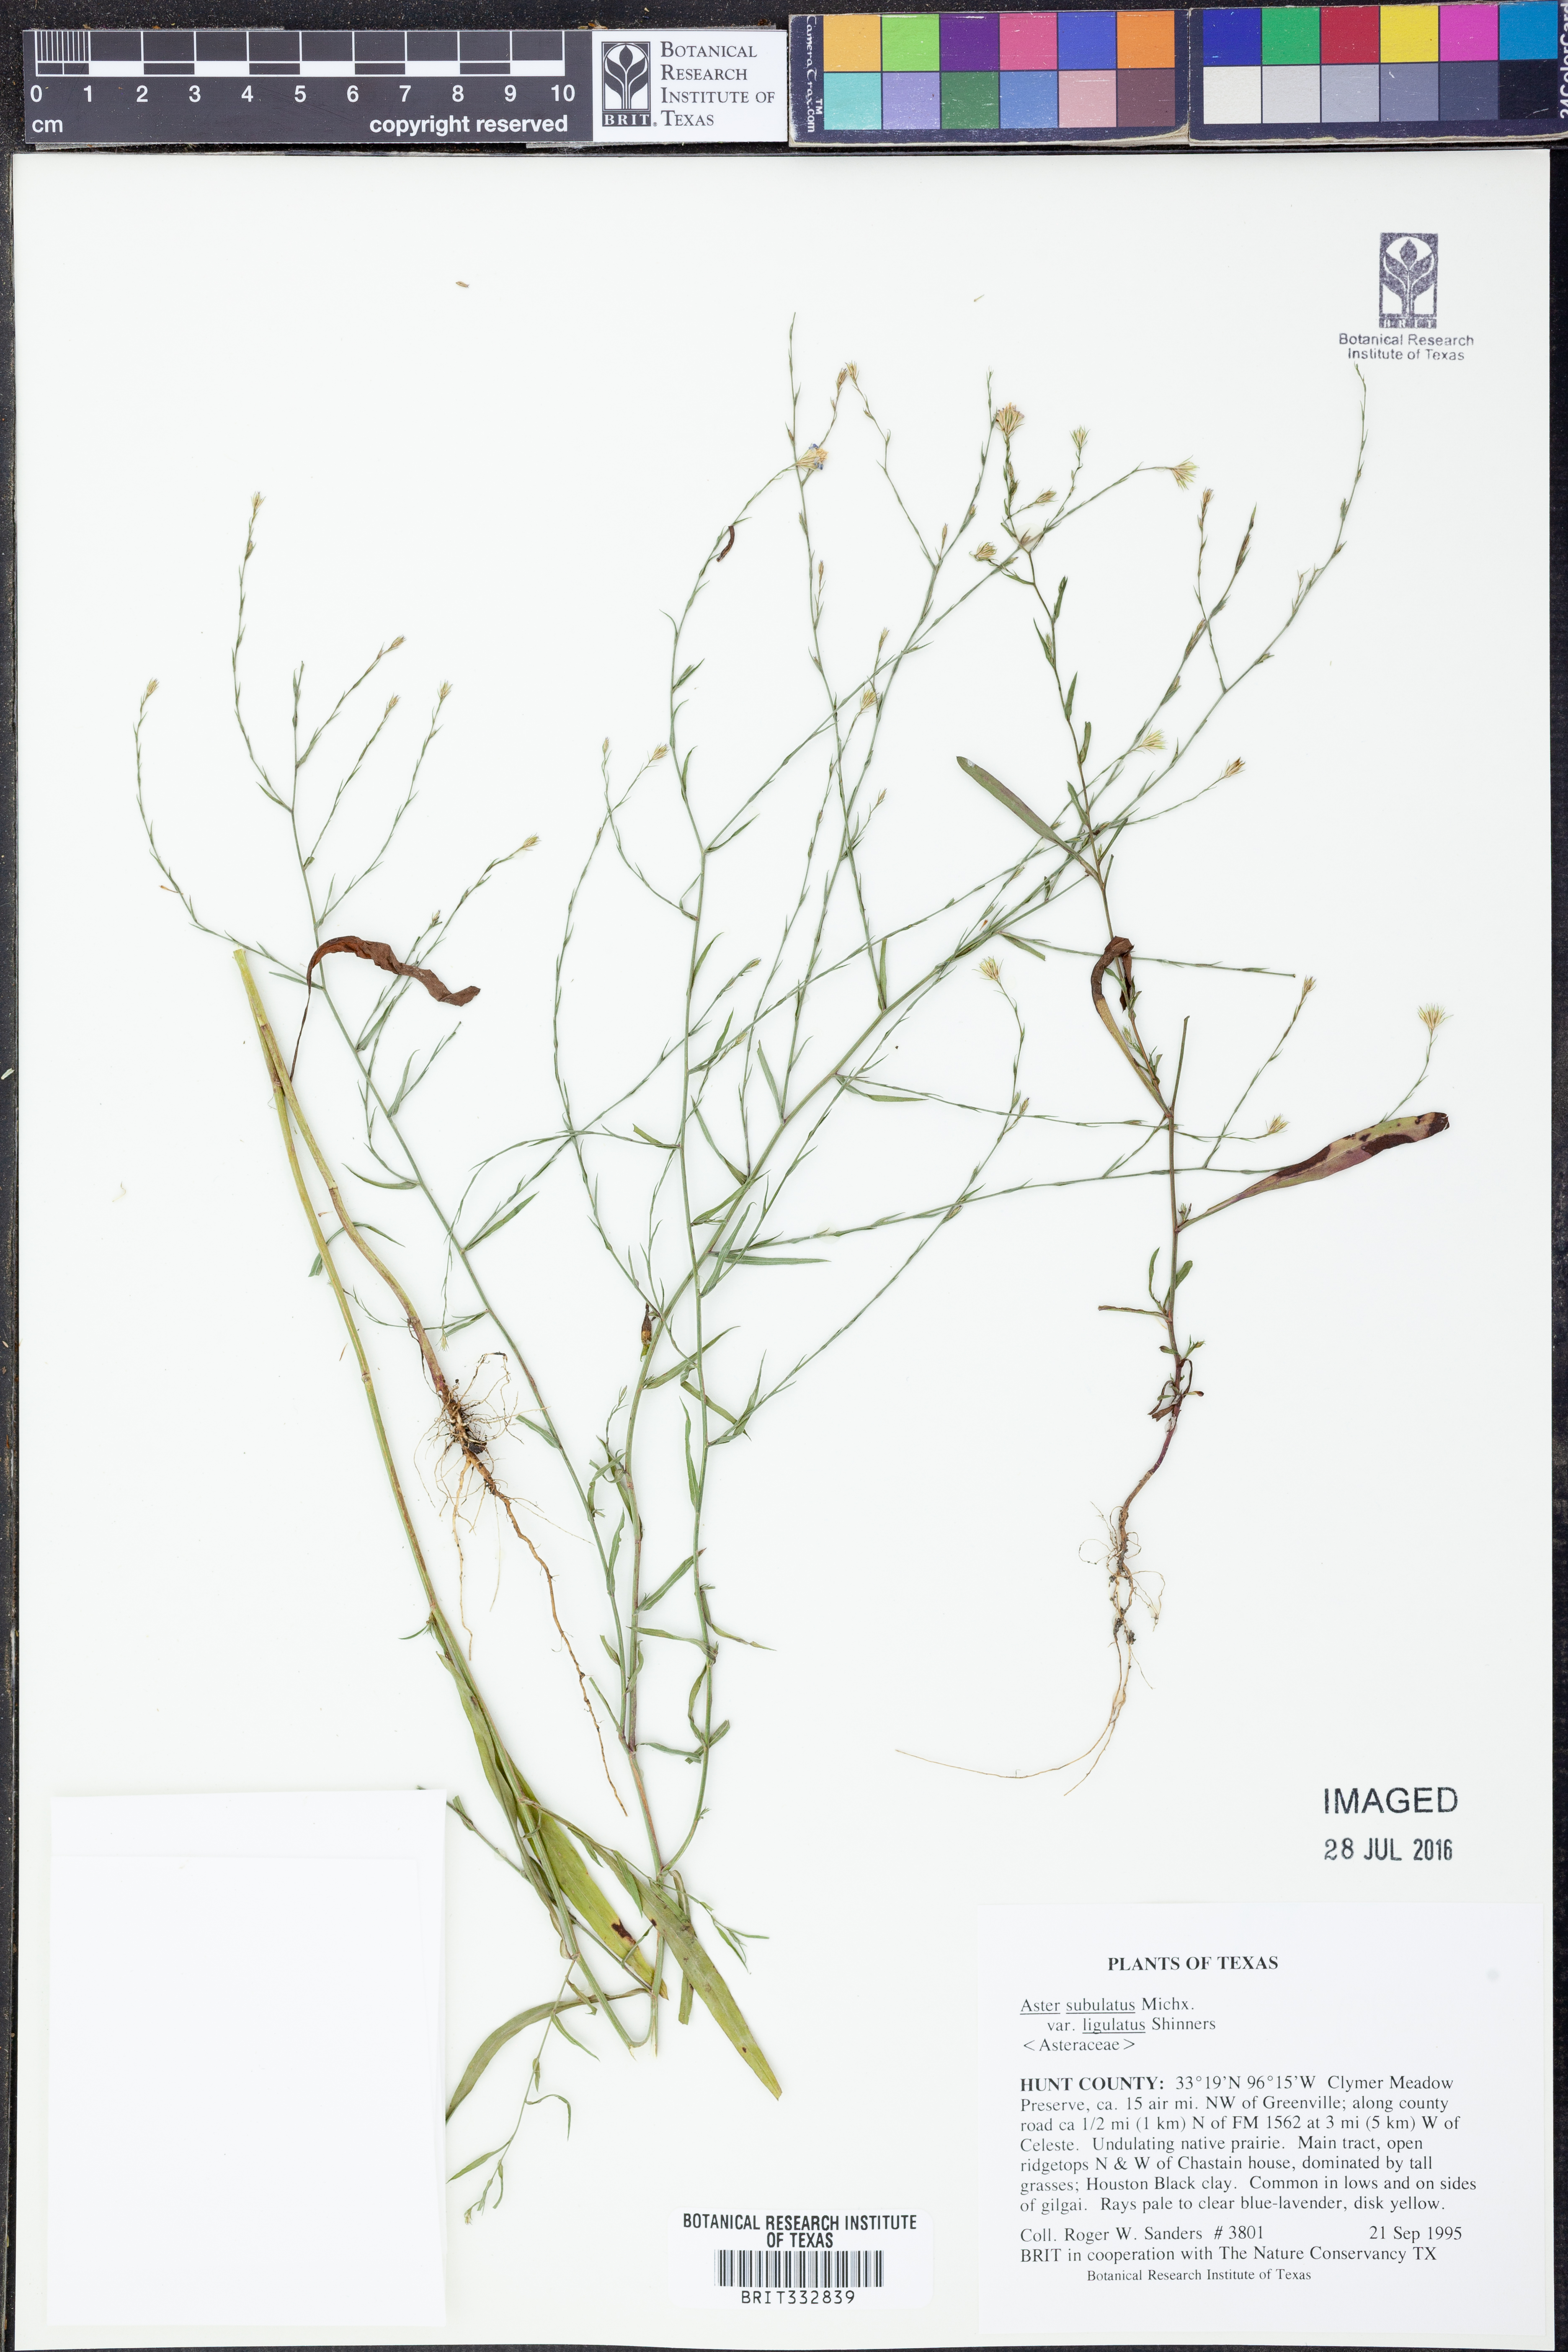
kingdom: Plantae
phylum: Tracheophyta
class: Magnoliopsida
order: Asterales
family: Asteraceae
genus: Symphyotrichum
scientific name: Symphyotrichum divaricatum
